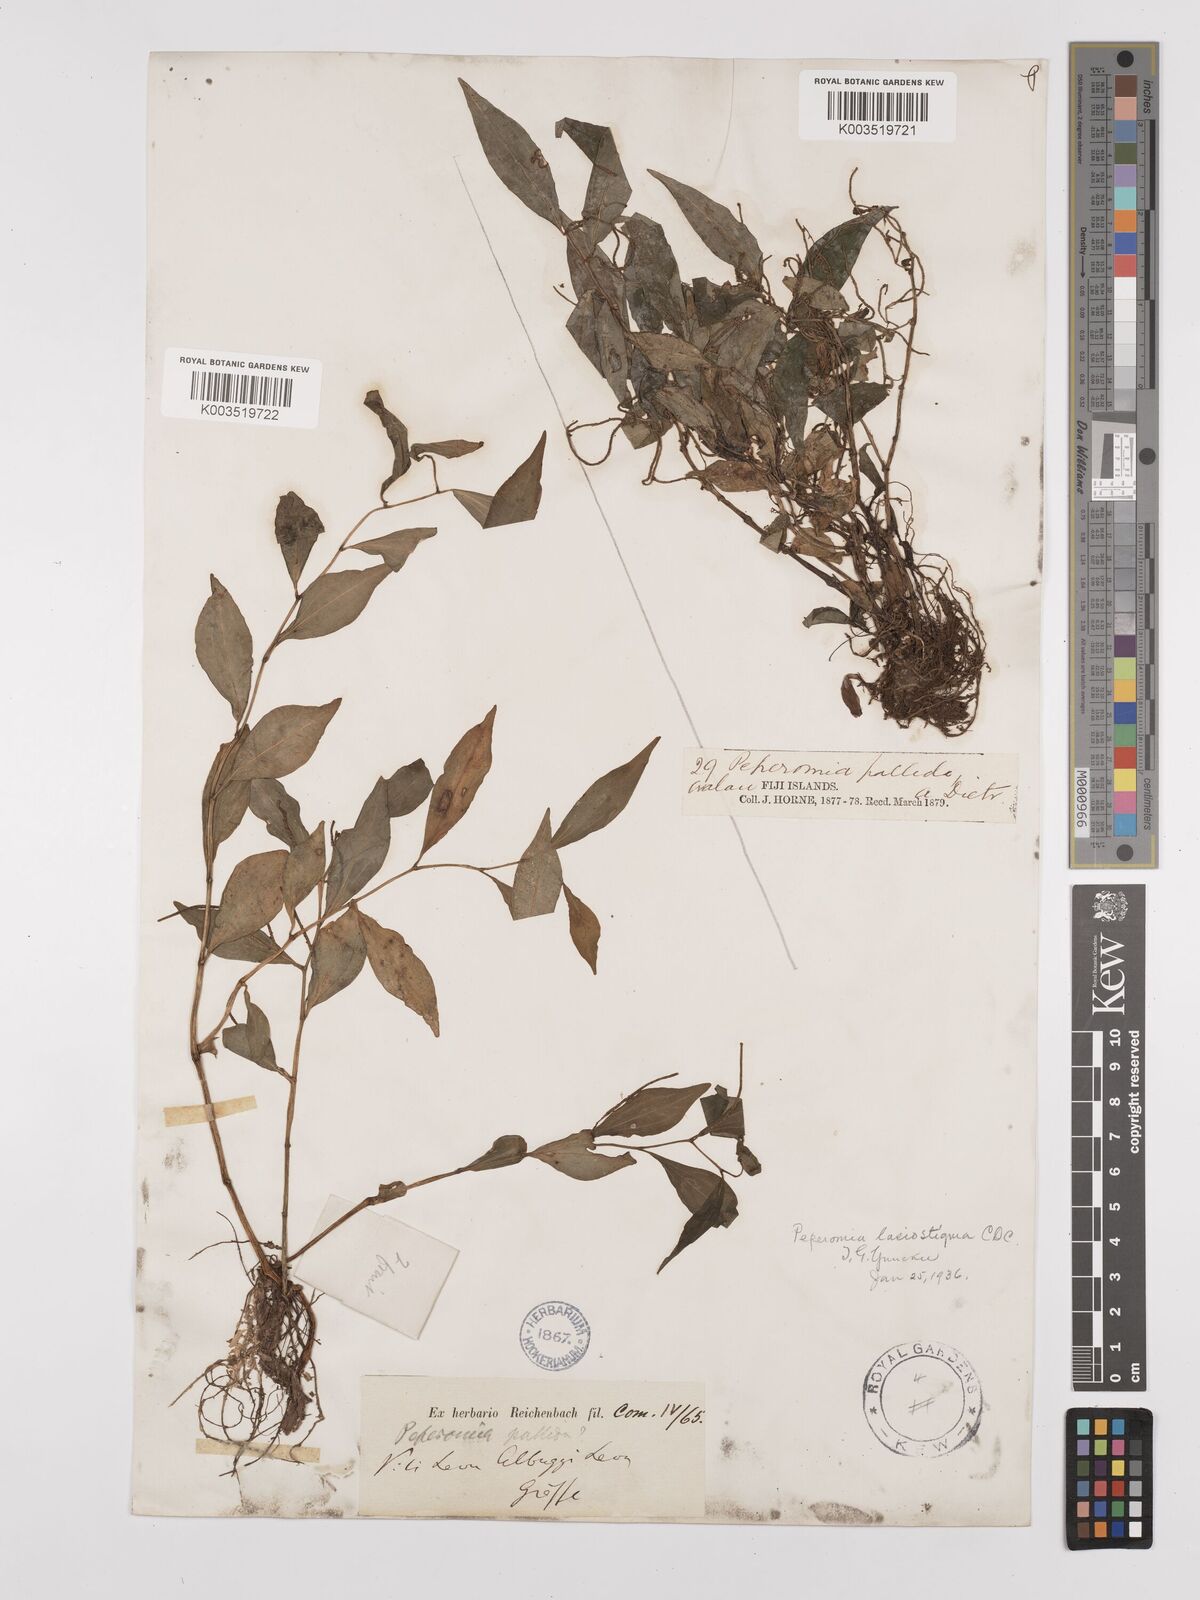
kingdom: Plantae
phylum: Tracheophyta
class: Magnoliopsida
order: Piperales
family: Piperaceae
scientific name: Piperaceae
